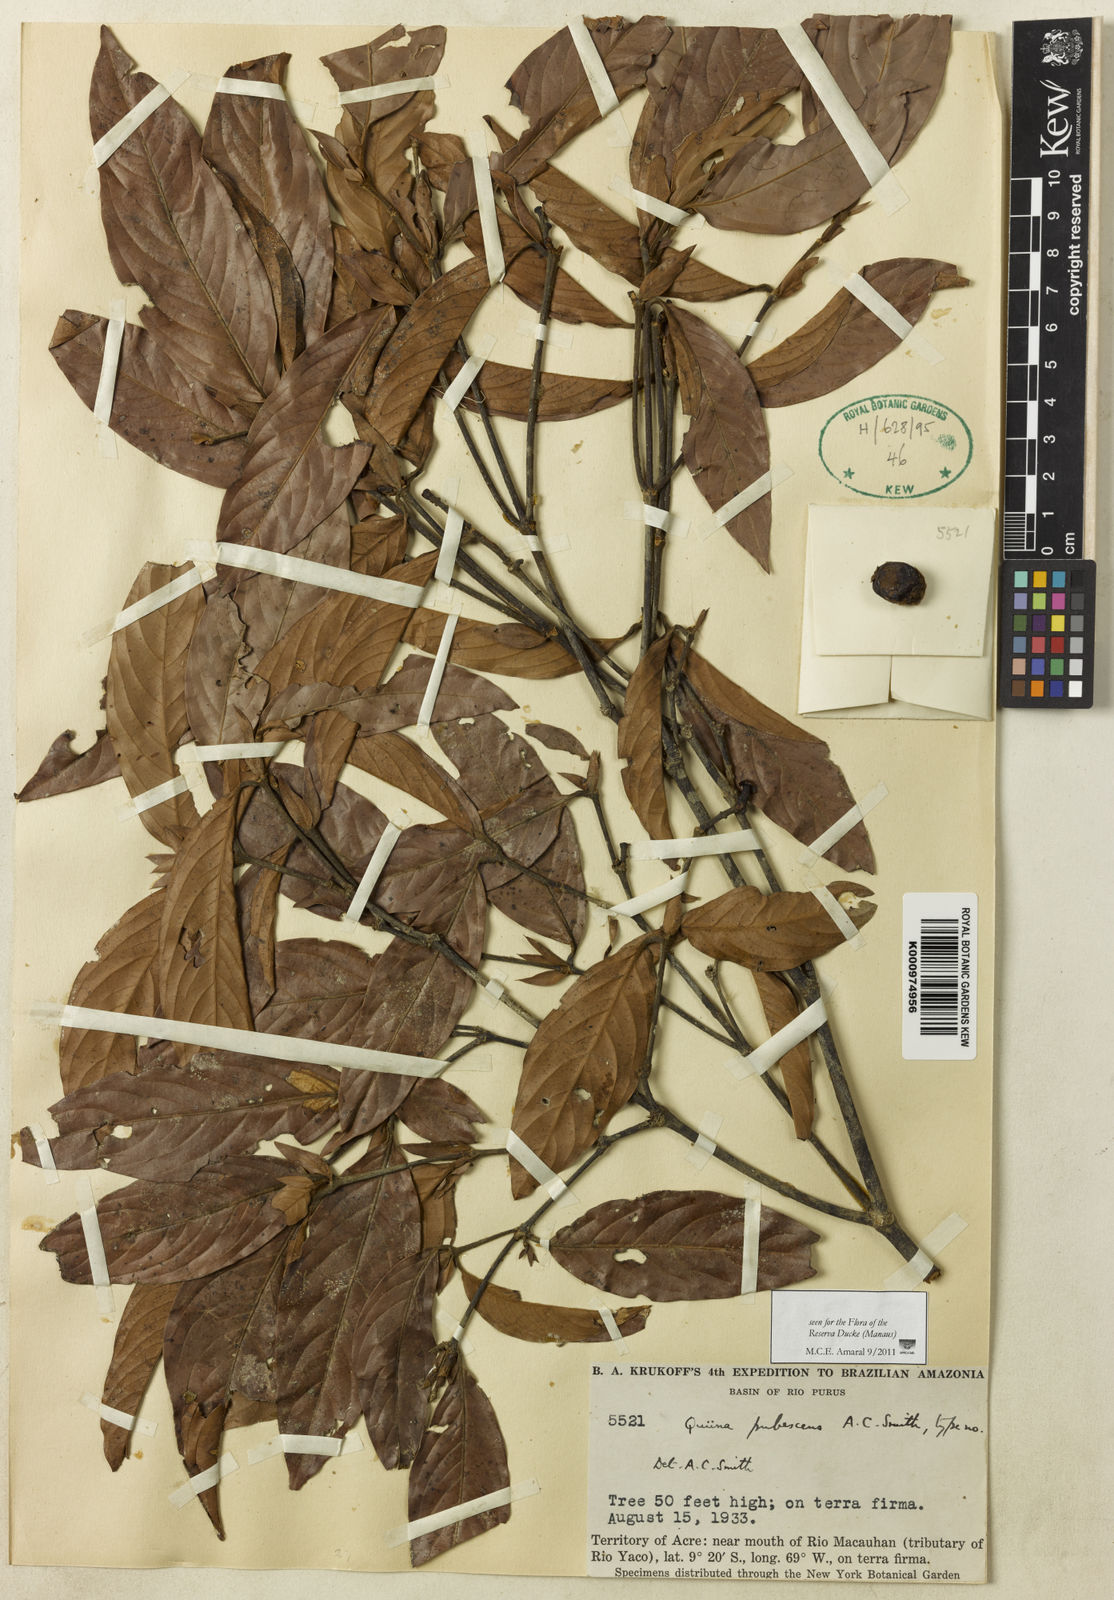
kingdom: Plantae
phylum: Tracheophyta
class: Magnoliopsida
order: Malpighiales
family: Quiinaceae
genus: Quiina
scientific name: Quiina florida
